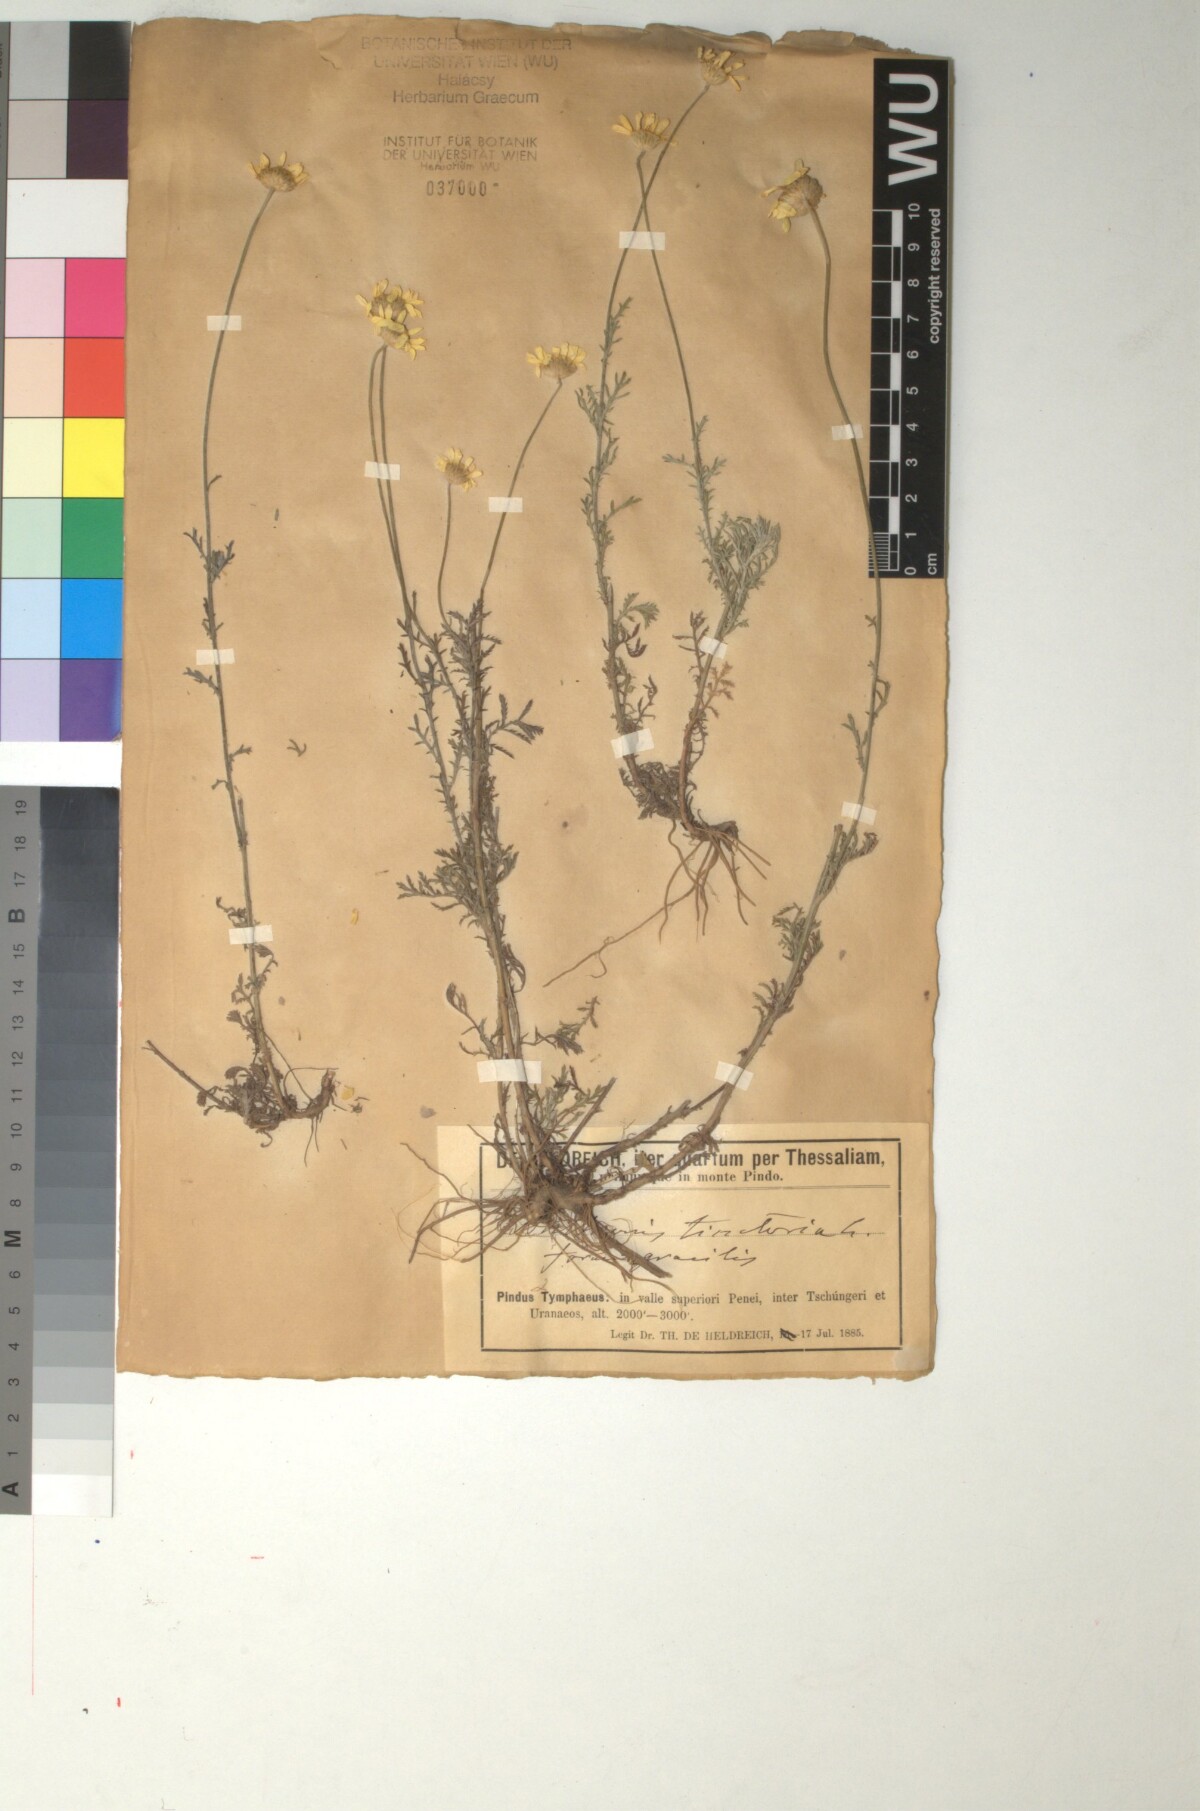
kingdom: Plantae
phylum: Tracheophyta
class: Magnoliopsida
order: Asterales
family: Asteraceae
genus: Cota
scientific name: Cota tinctoria
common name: Golden chamomile
